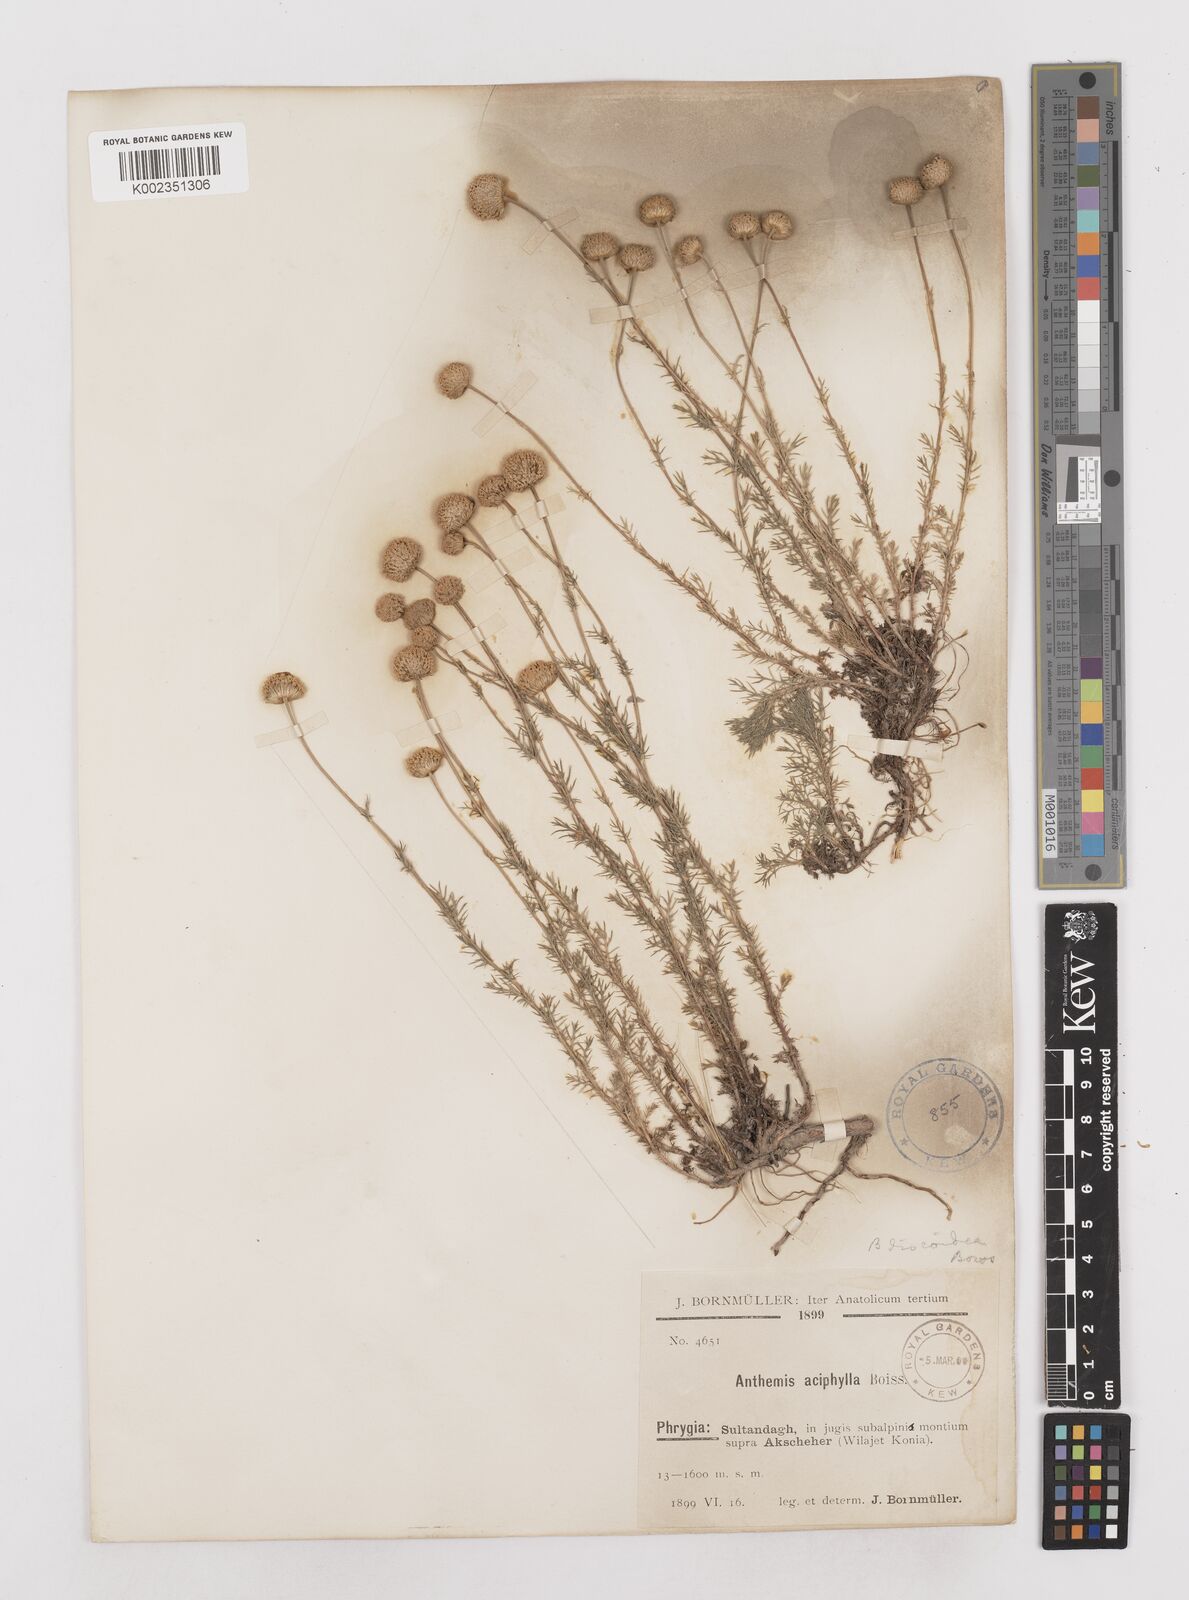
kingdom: Plantae
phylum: Tracheophyta
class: Magnoliopsida
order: Asterales
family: Asteraceae
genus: Anthemis
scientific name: Anthemis aciphylla
